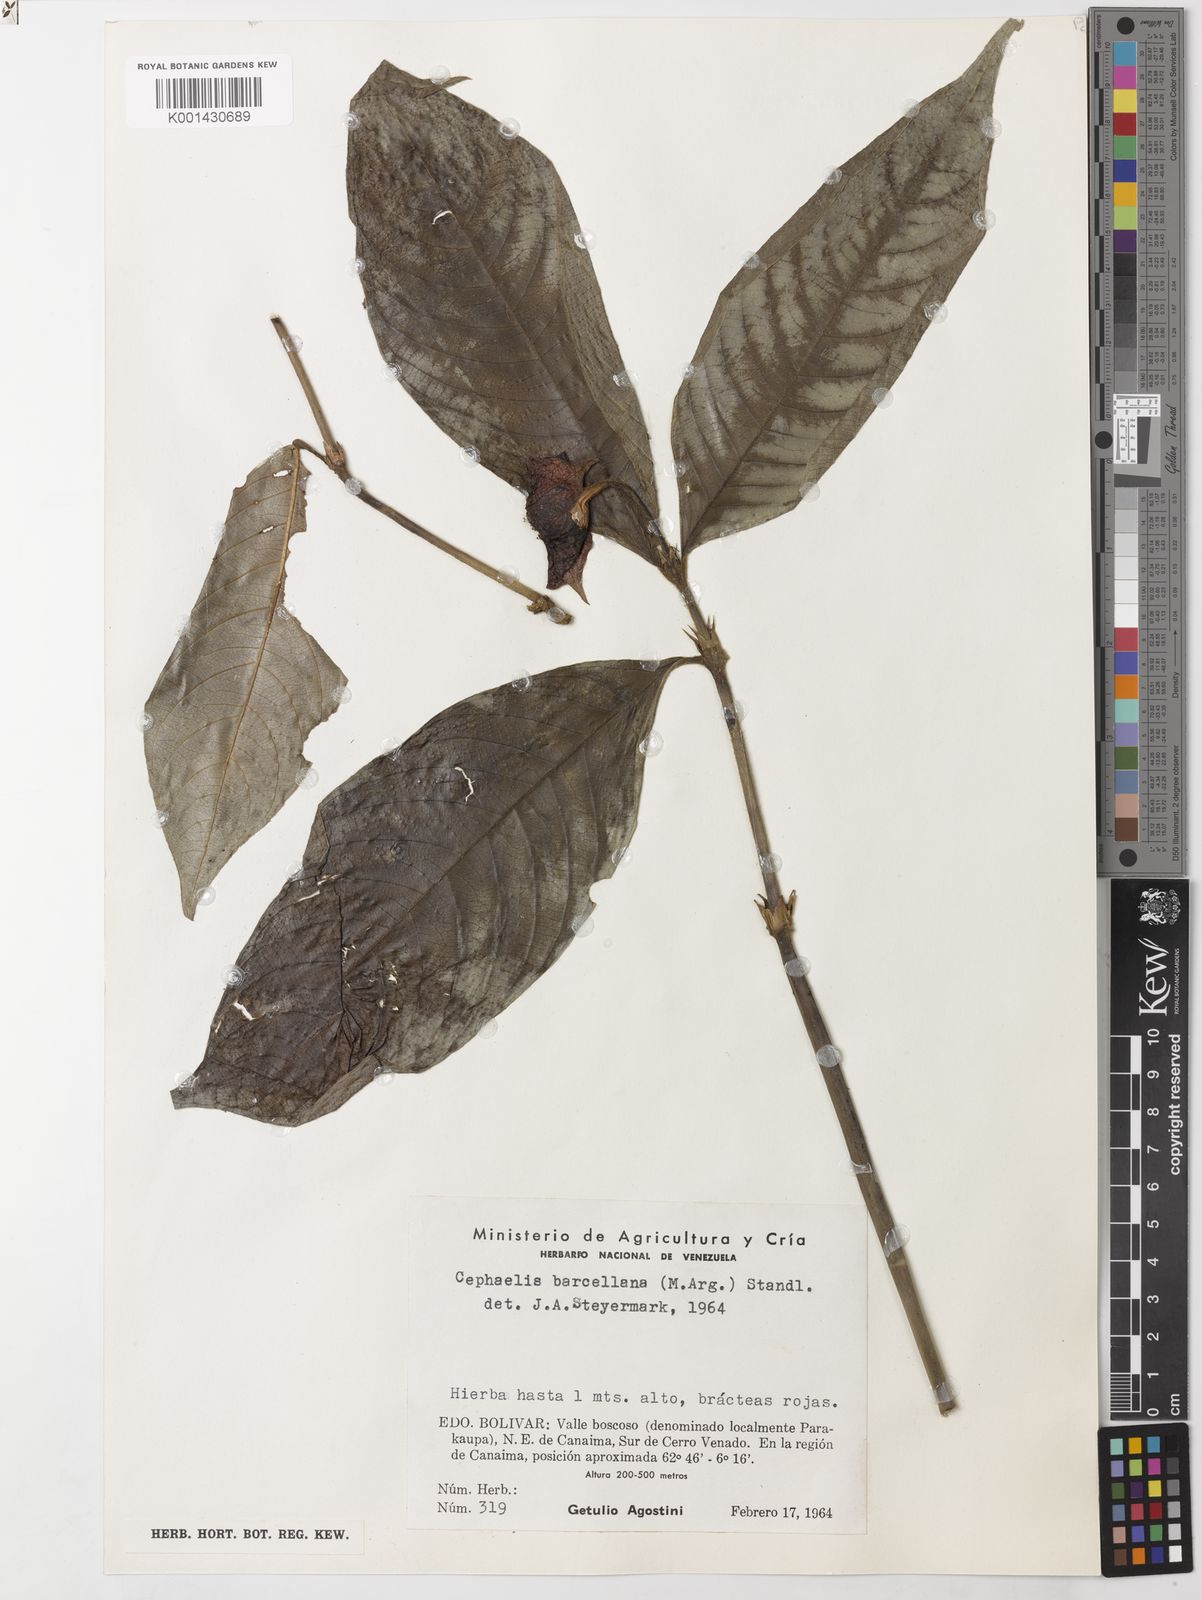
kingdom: Plantae
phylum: Tracheophyta
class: Magnoliopsida
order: Gentianales
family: Rubiaceae
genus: Psychotria
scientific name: Psychotria
